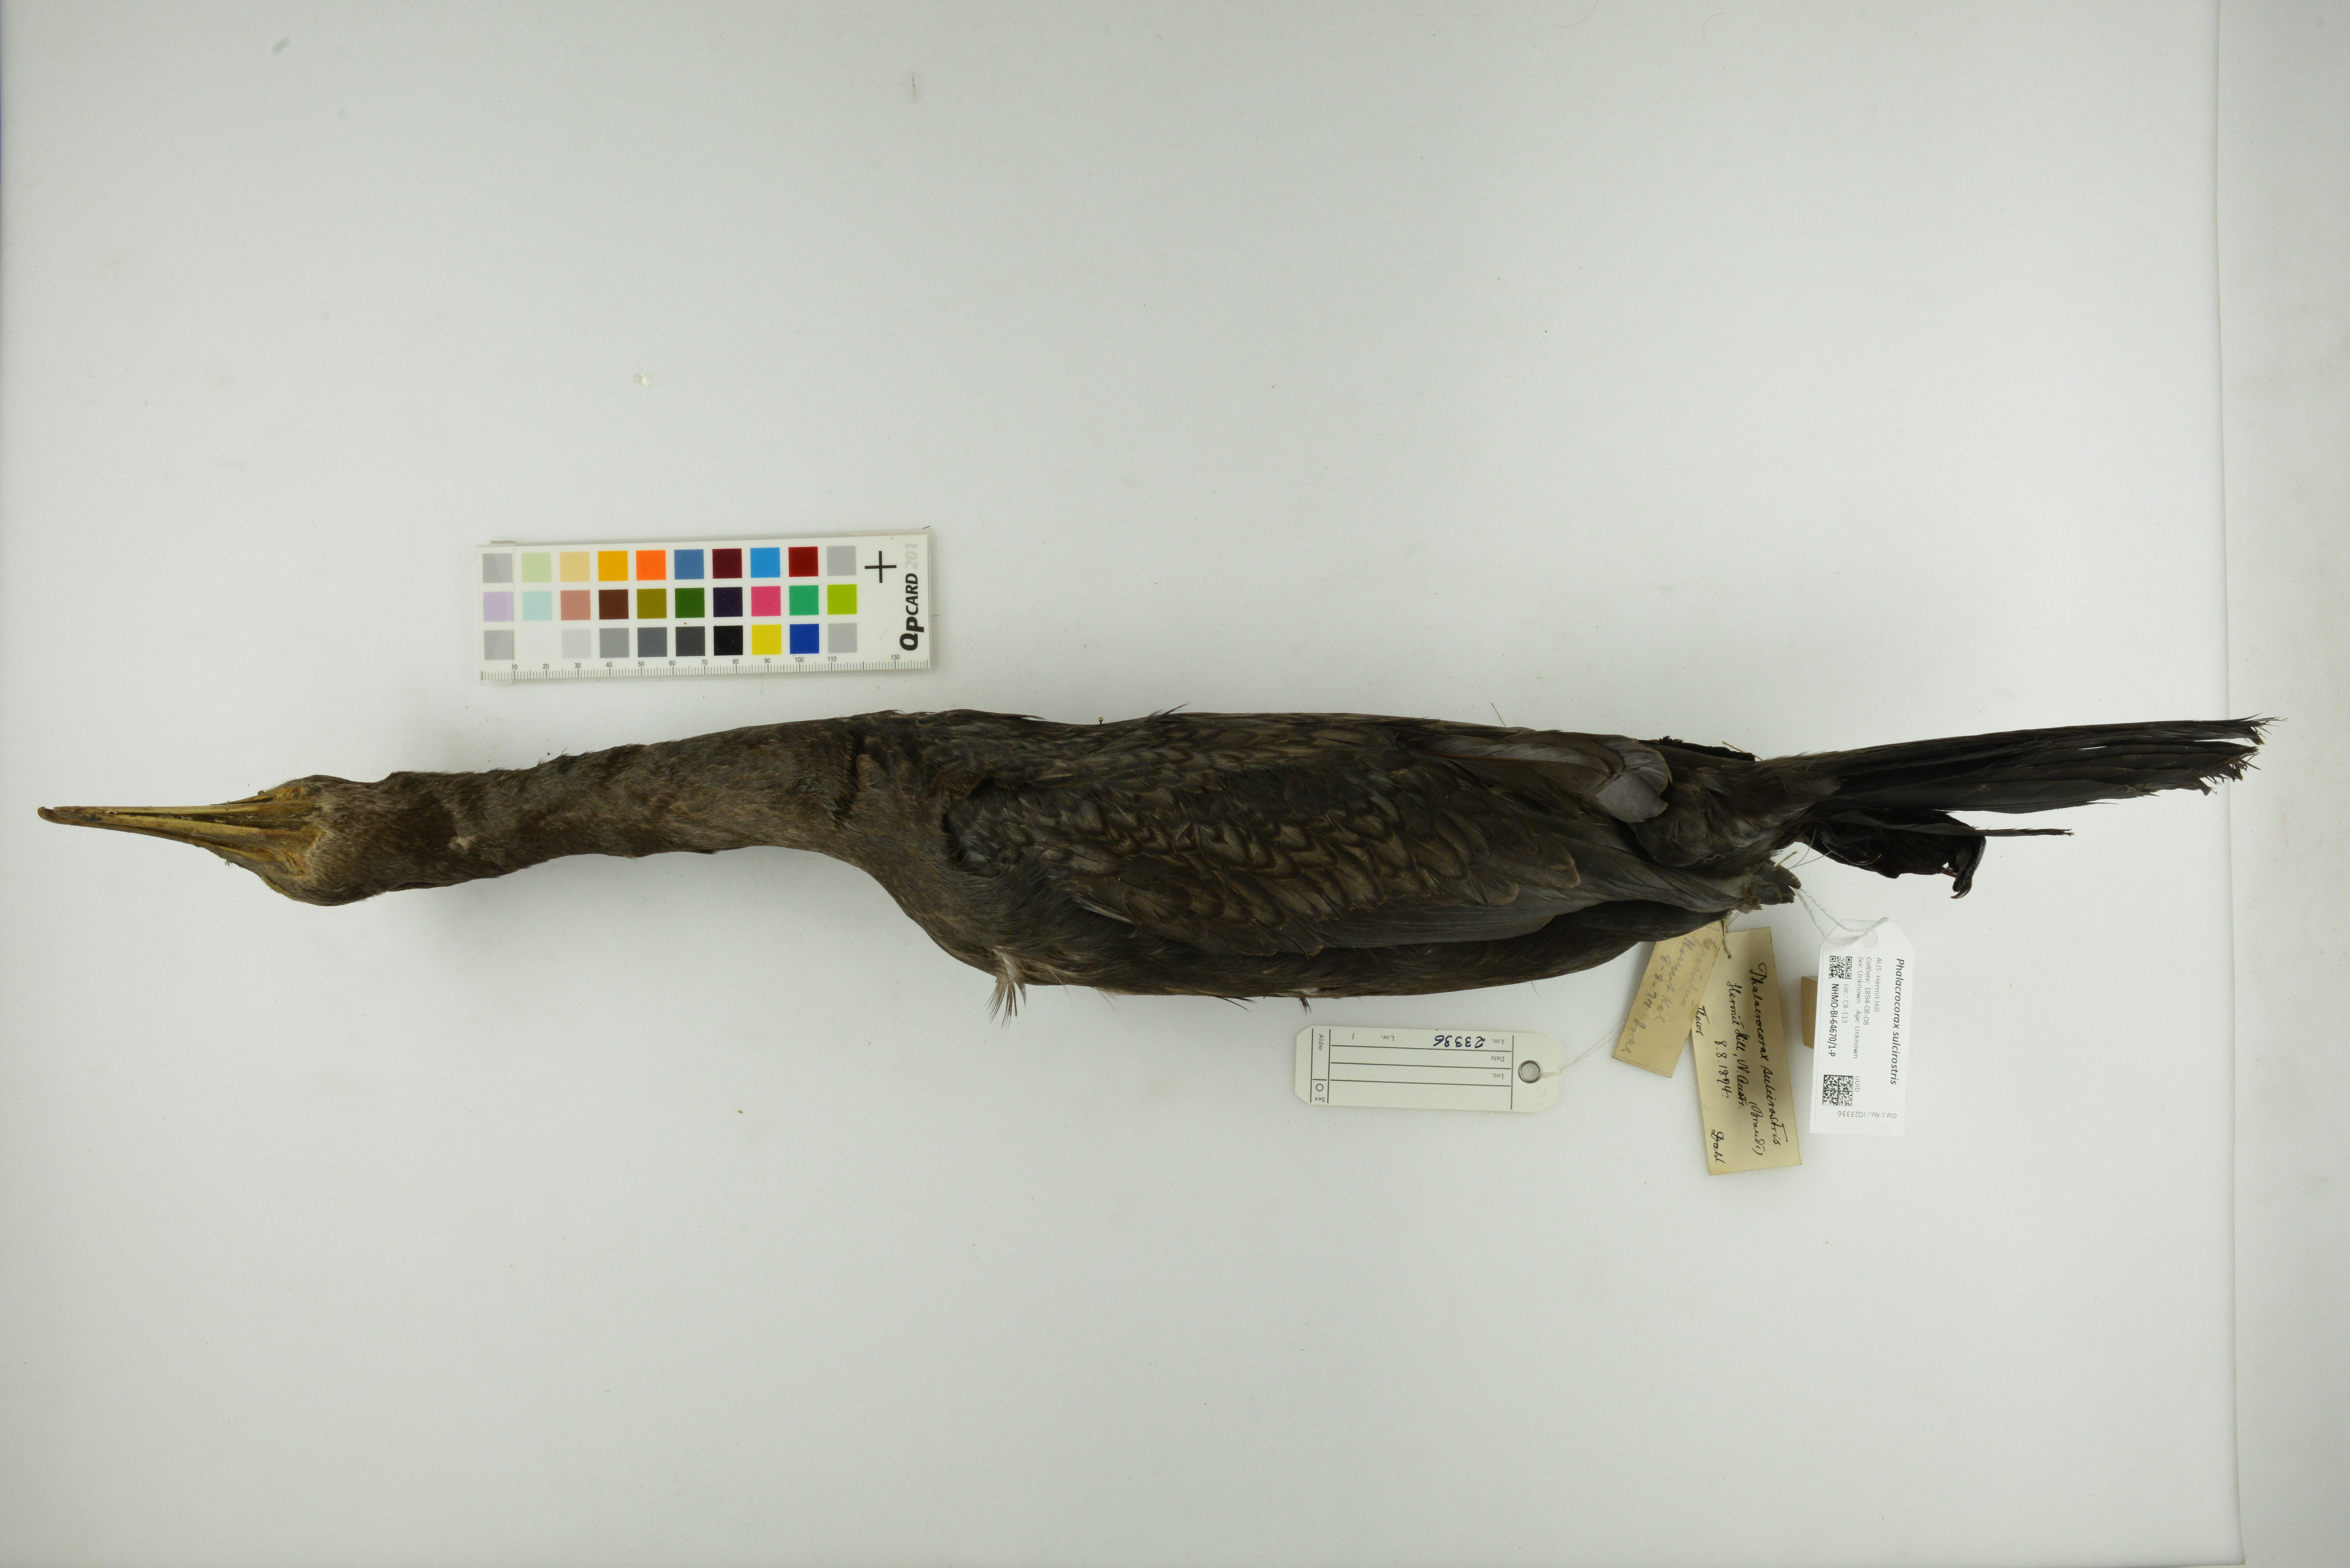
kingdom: Animalia
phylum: Chordata
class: Aves
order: Suliformes
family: Phalacrocoracidae
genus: Phalacrocorax
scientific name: Phalacrocorax sulcirostris
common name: Little black cormorant
